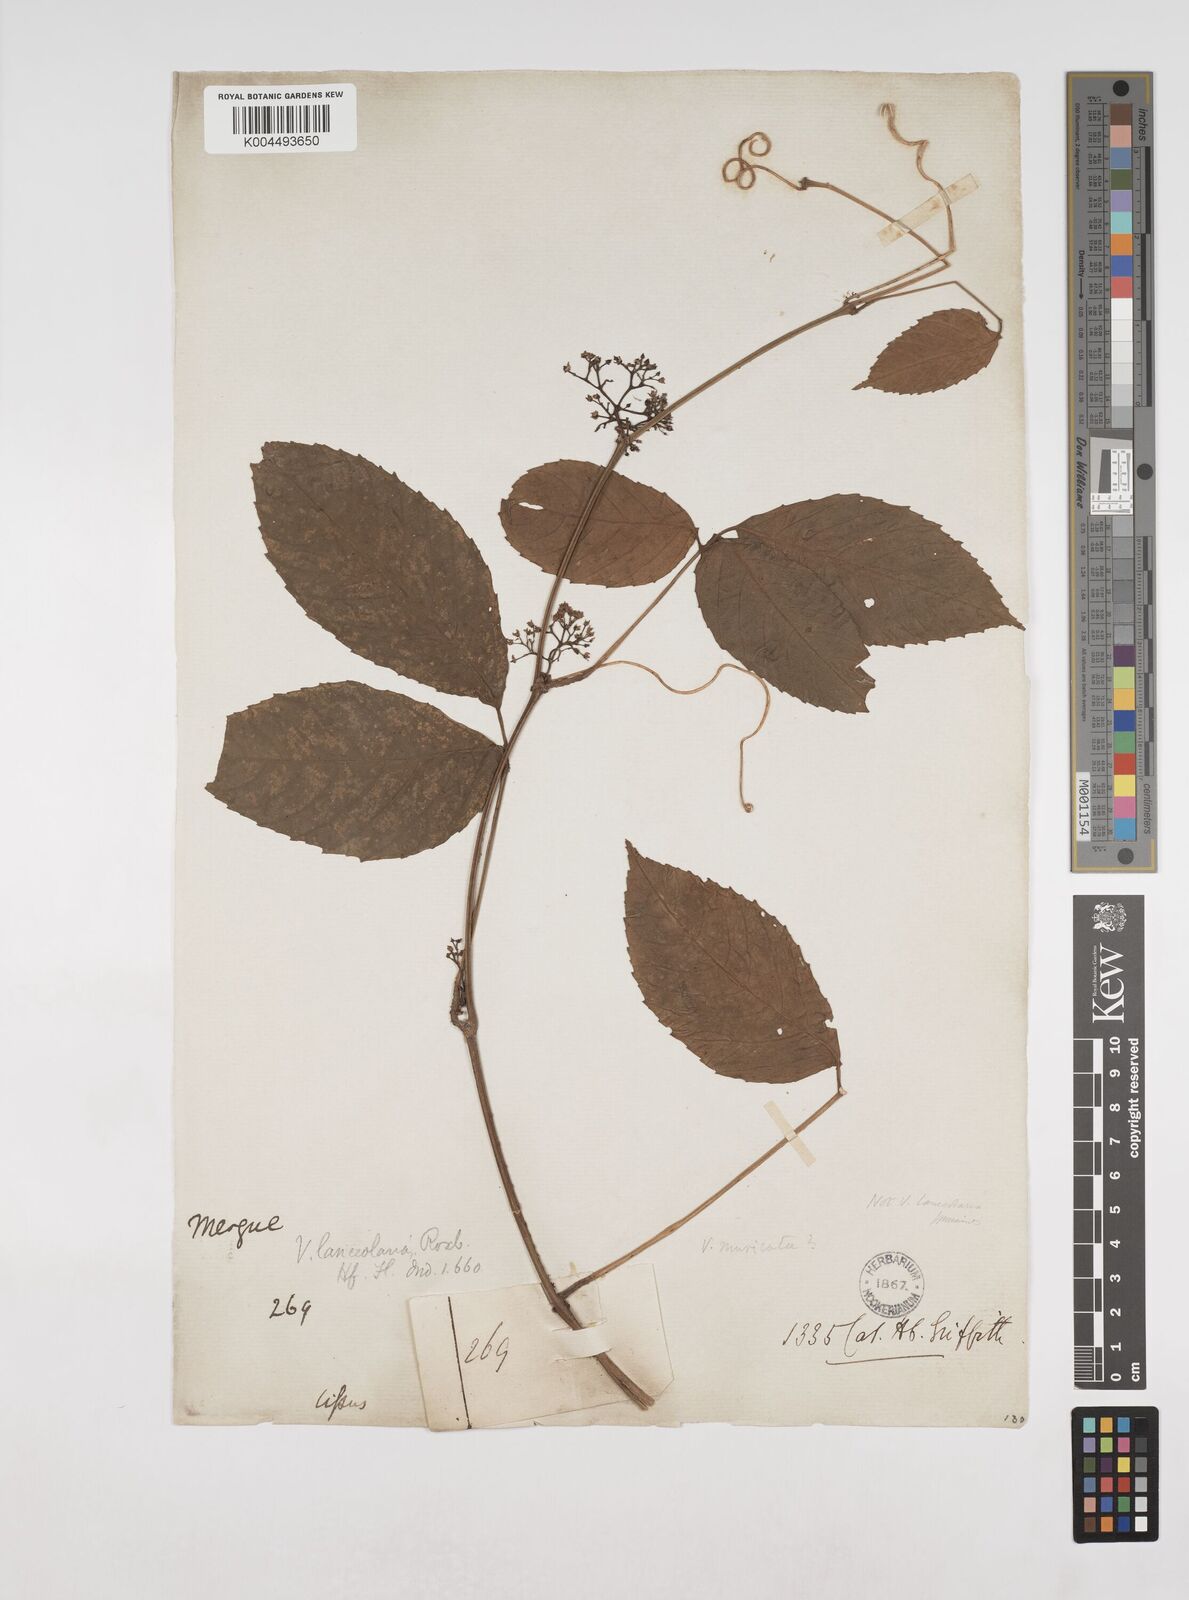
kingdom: Plantae
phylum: Tracheophyta
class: Magnoliopsida
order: Vitales
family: Vitaceae
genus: Tetrastigma
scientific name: Tetrastigma leucostaphylum
